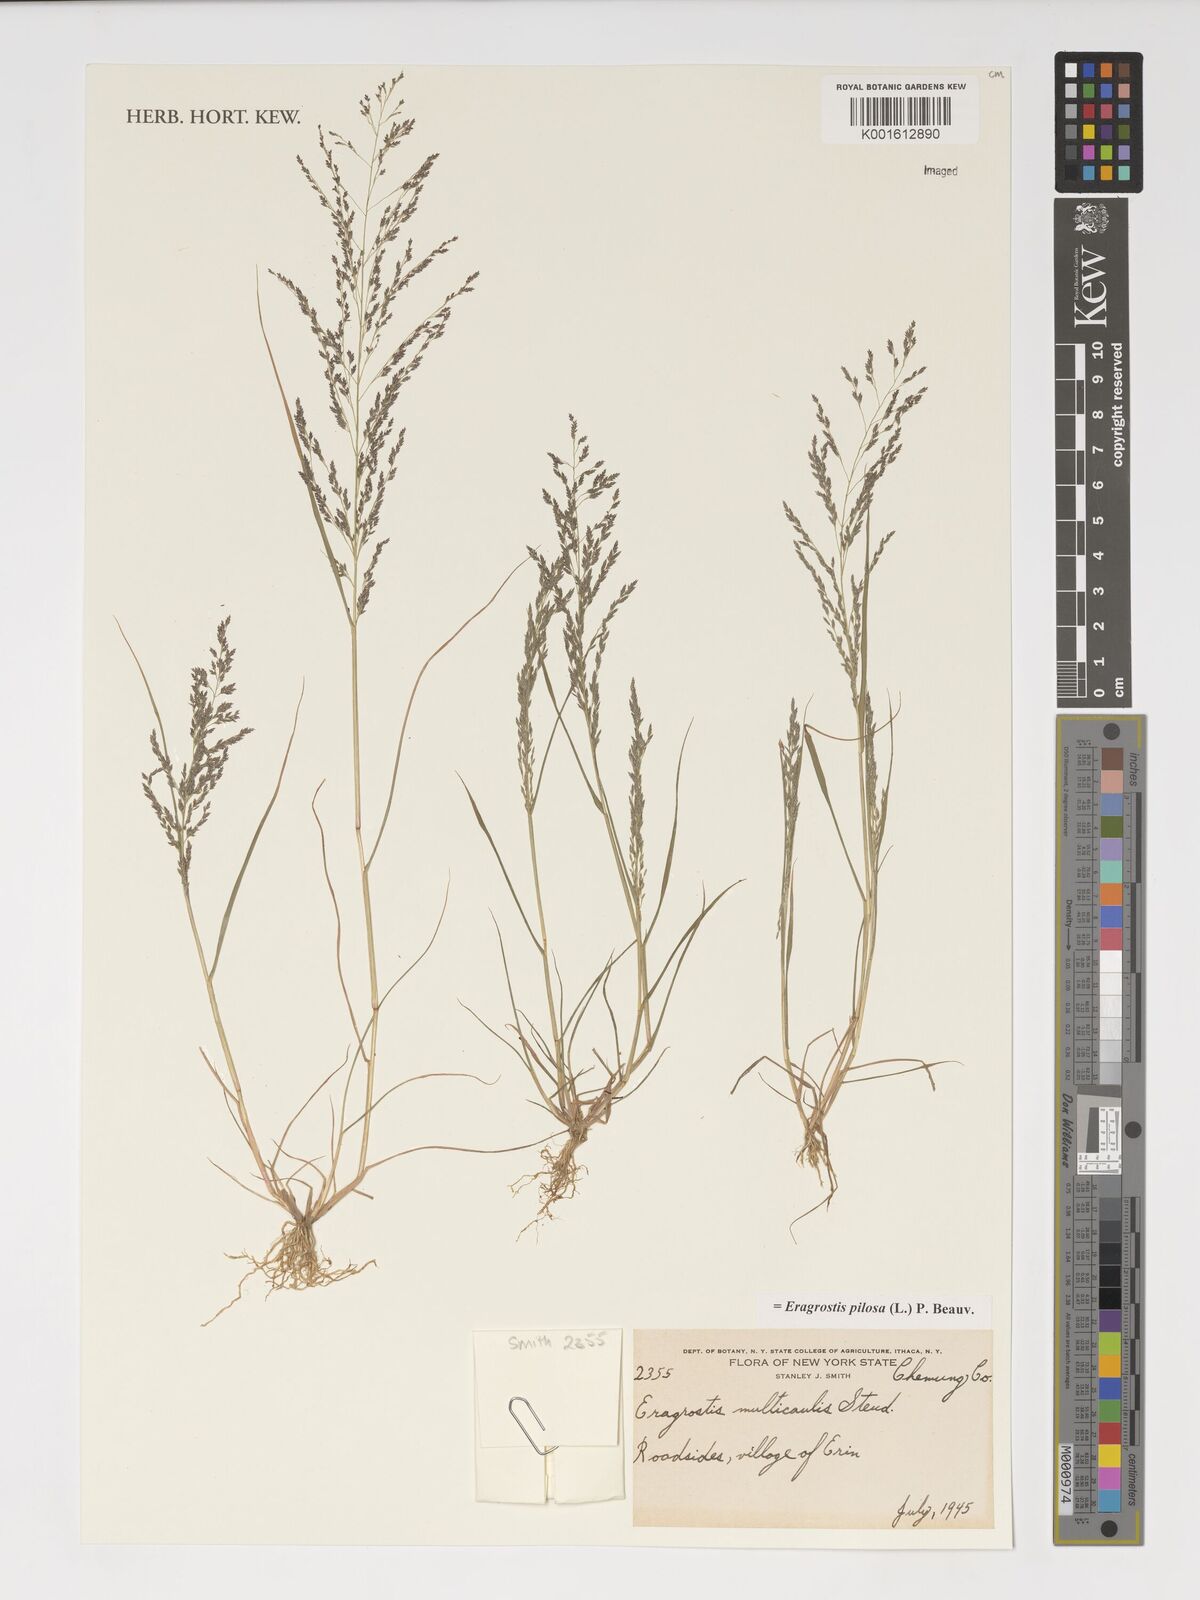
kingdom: Plantae
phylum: Tracheophyta
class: Liliopsida
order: Poales
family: Poaceae
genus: Eragrostis
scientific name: Eragrostis pilosa
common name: Indian lovegrass
